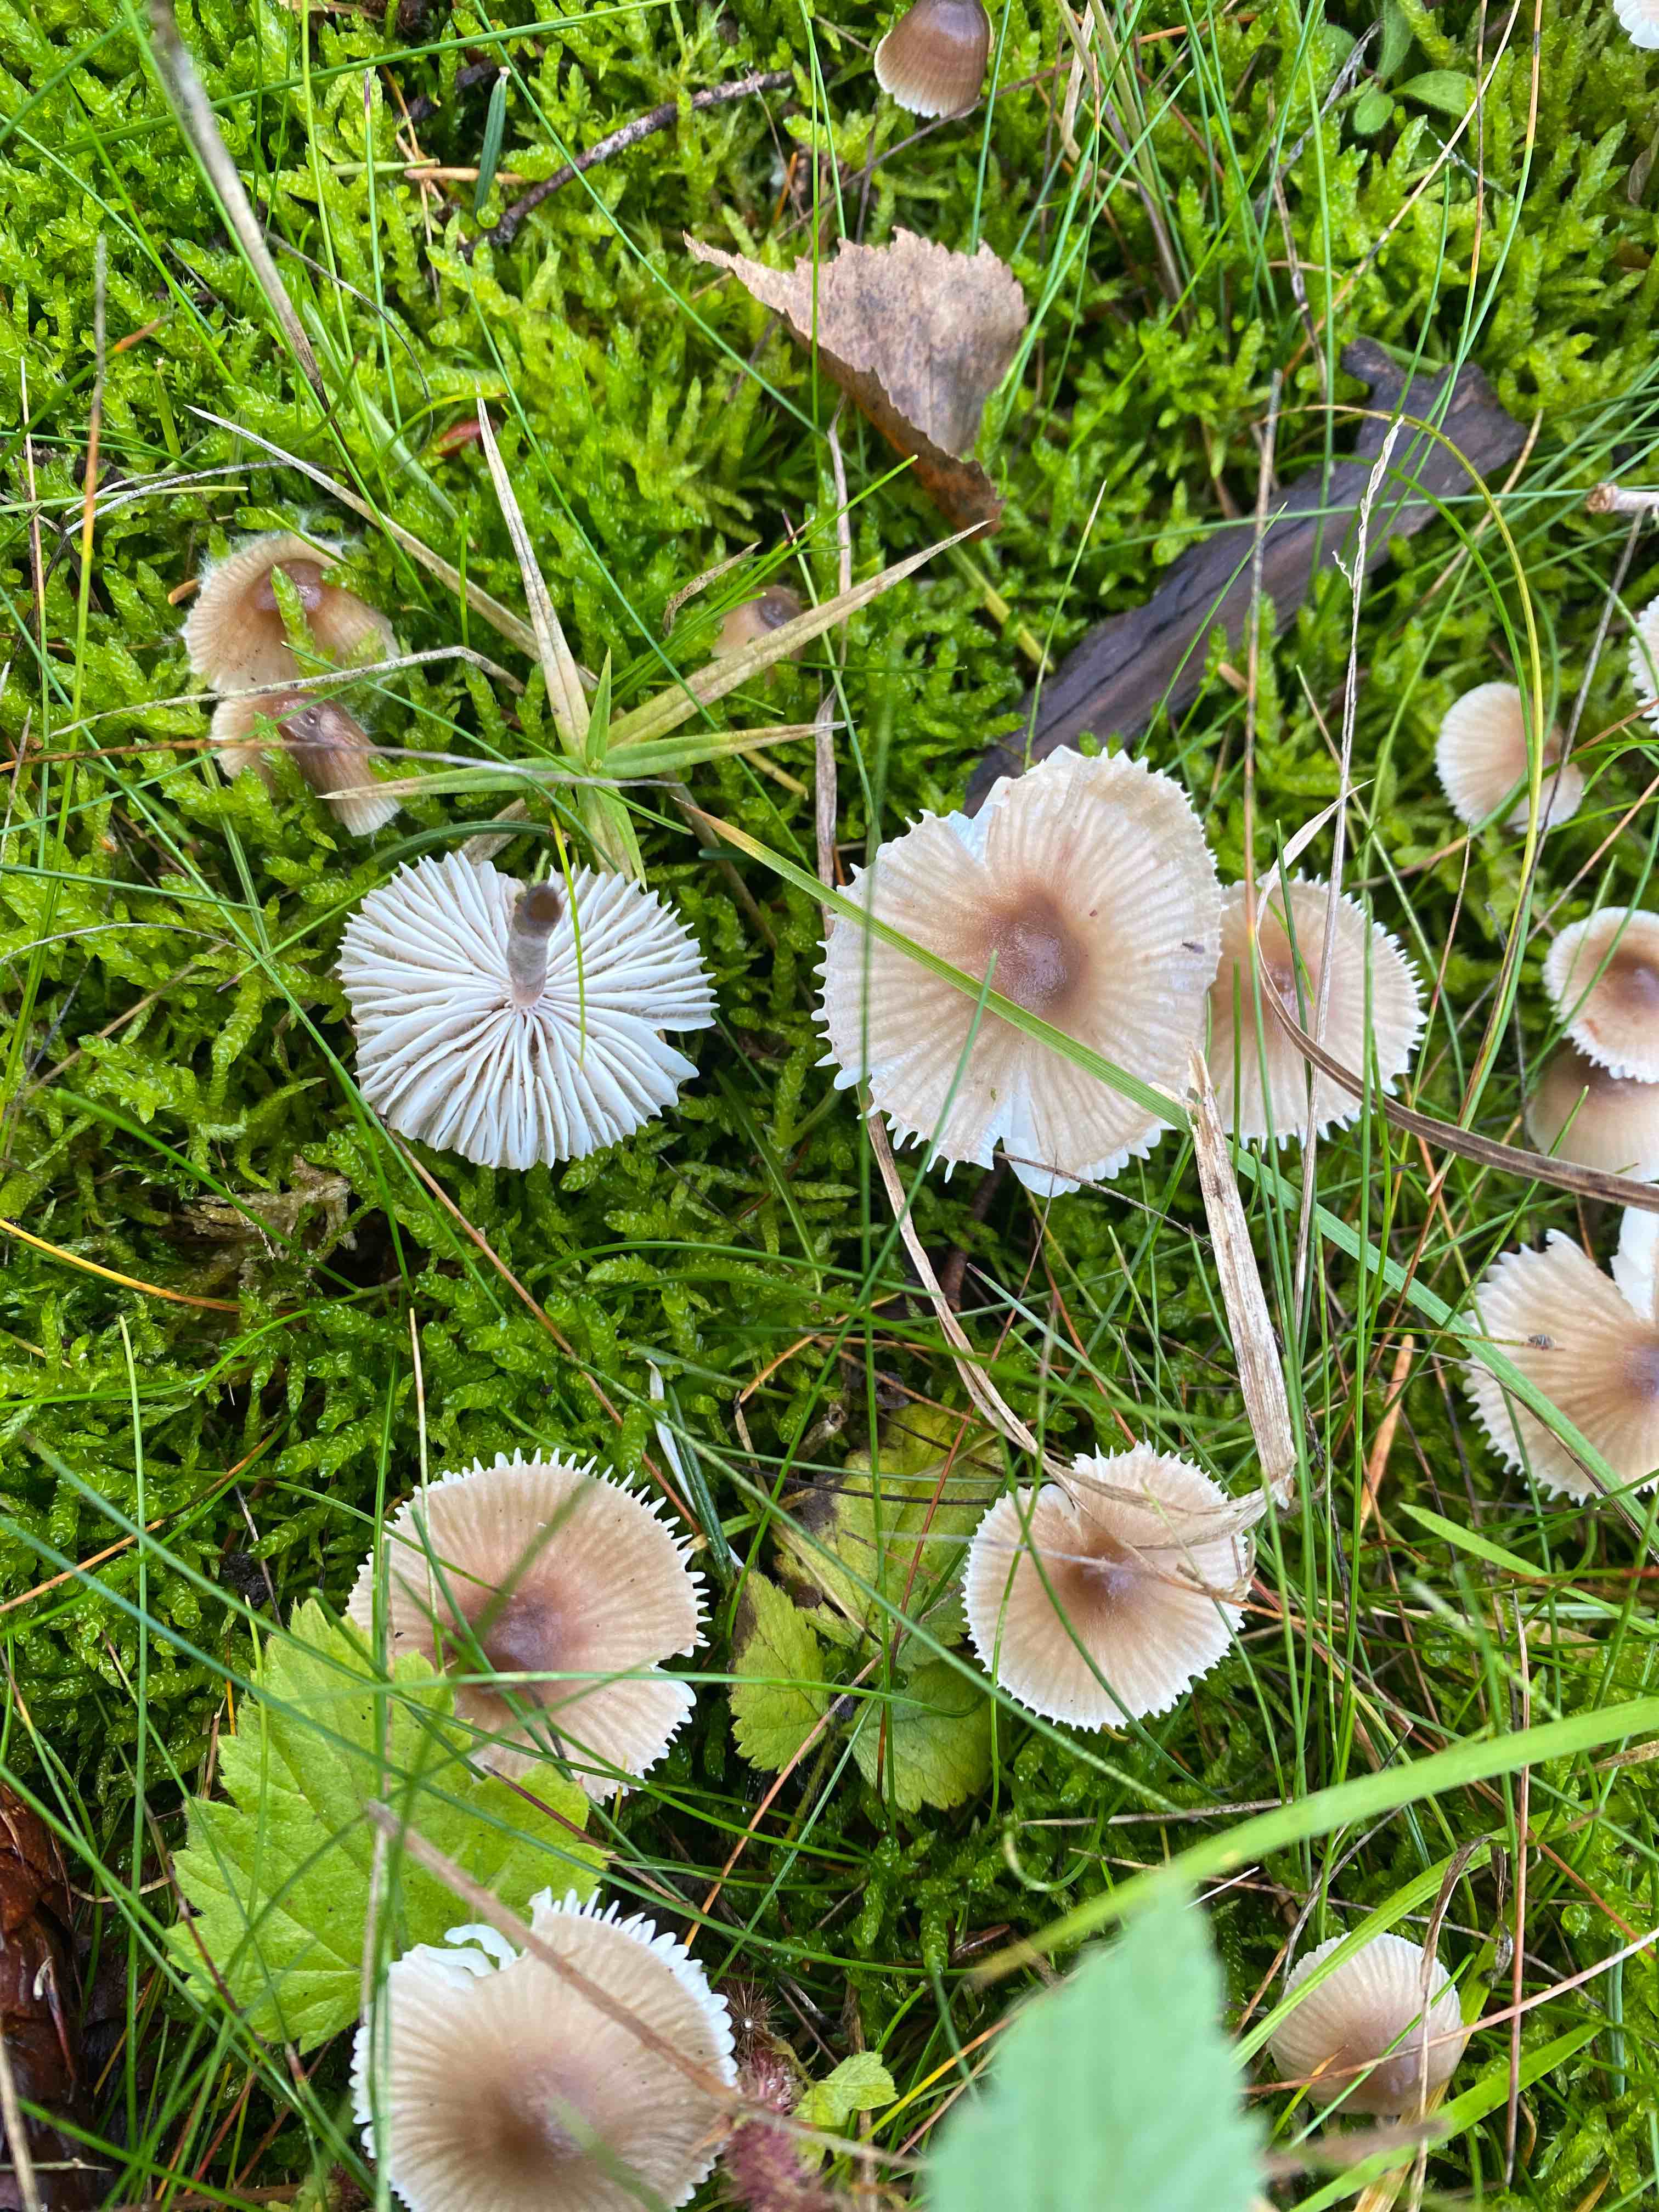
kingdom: Fungi
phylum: Basidiomycota
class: Agaricomycetes
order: Agaricales
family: Mycenaceae
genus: Mycena
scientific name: Mycena galericulata
